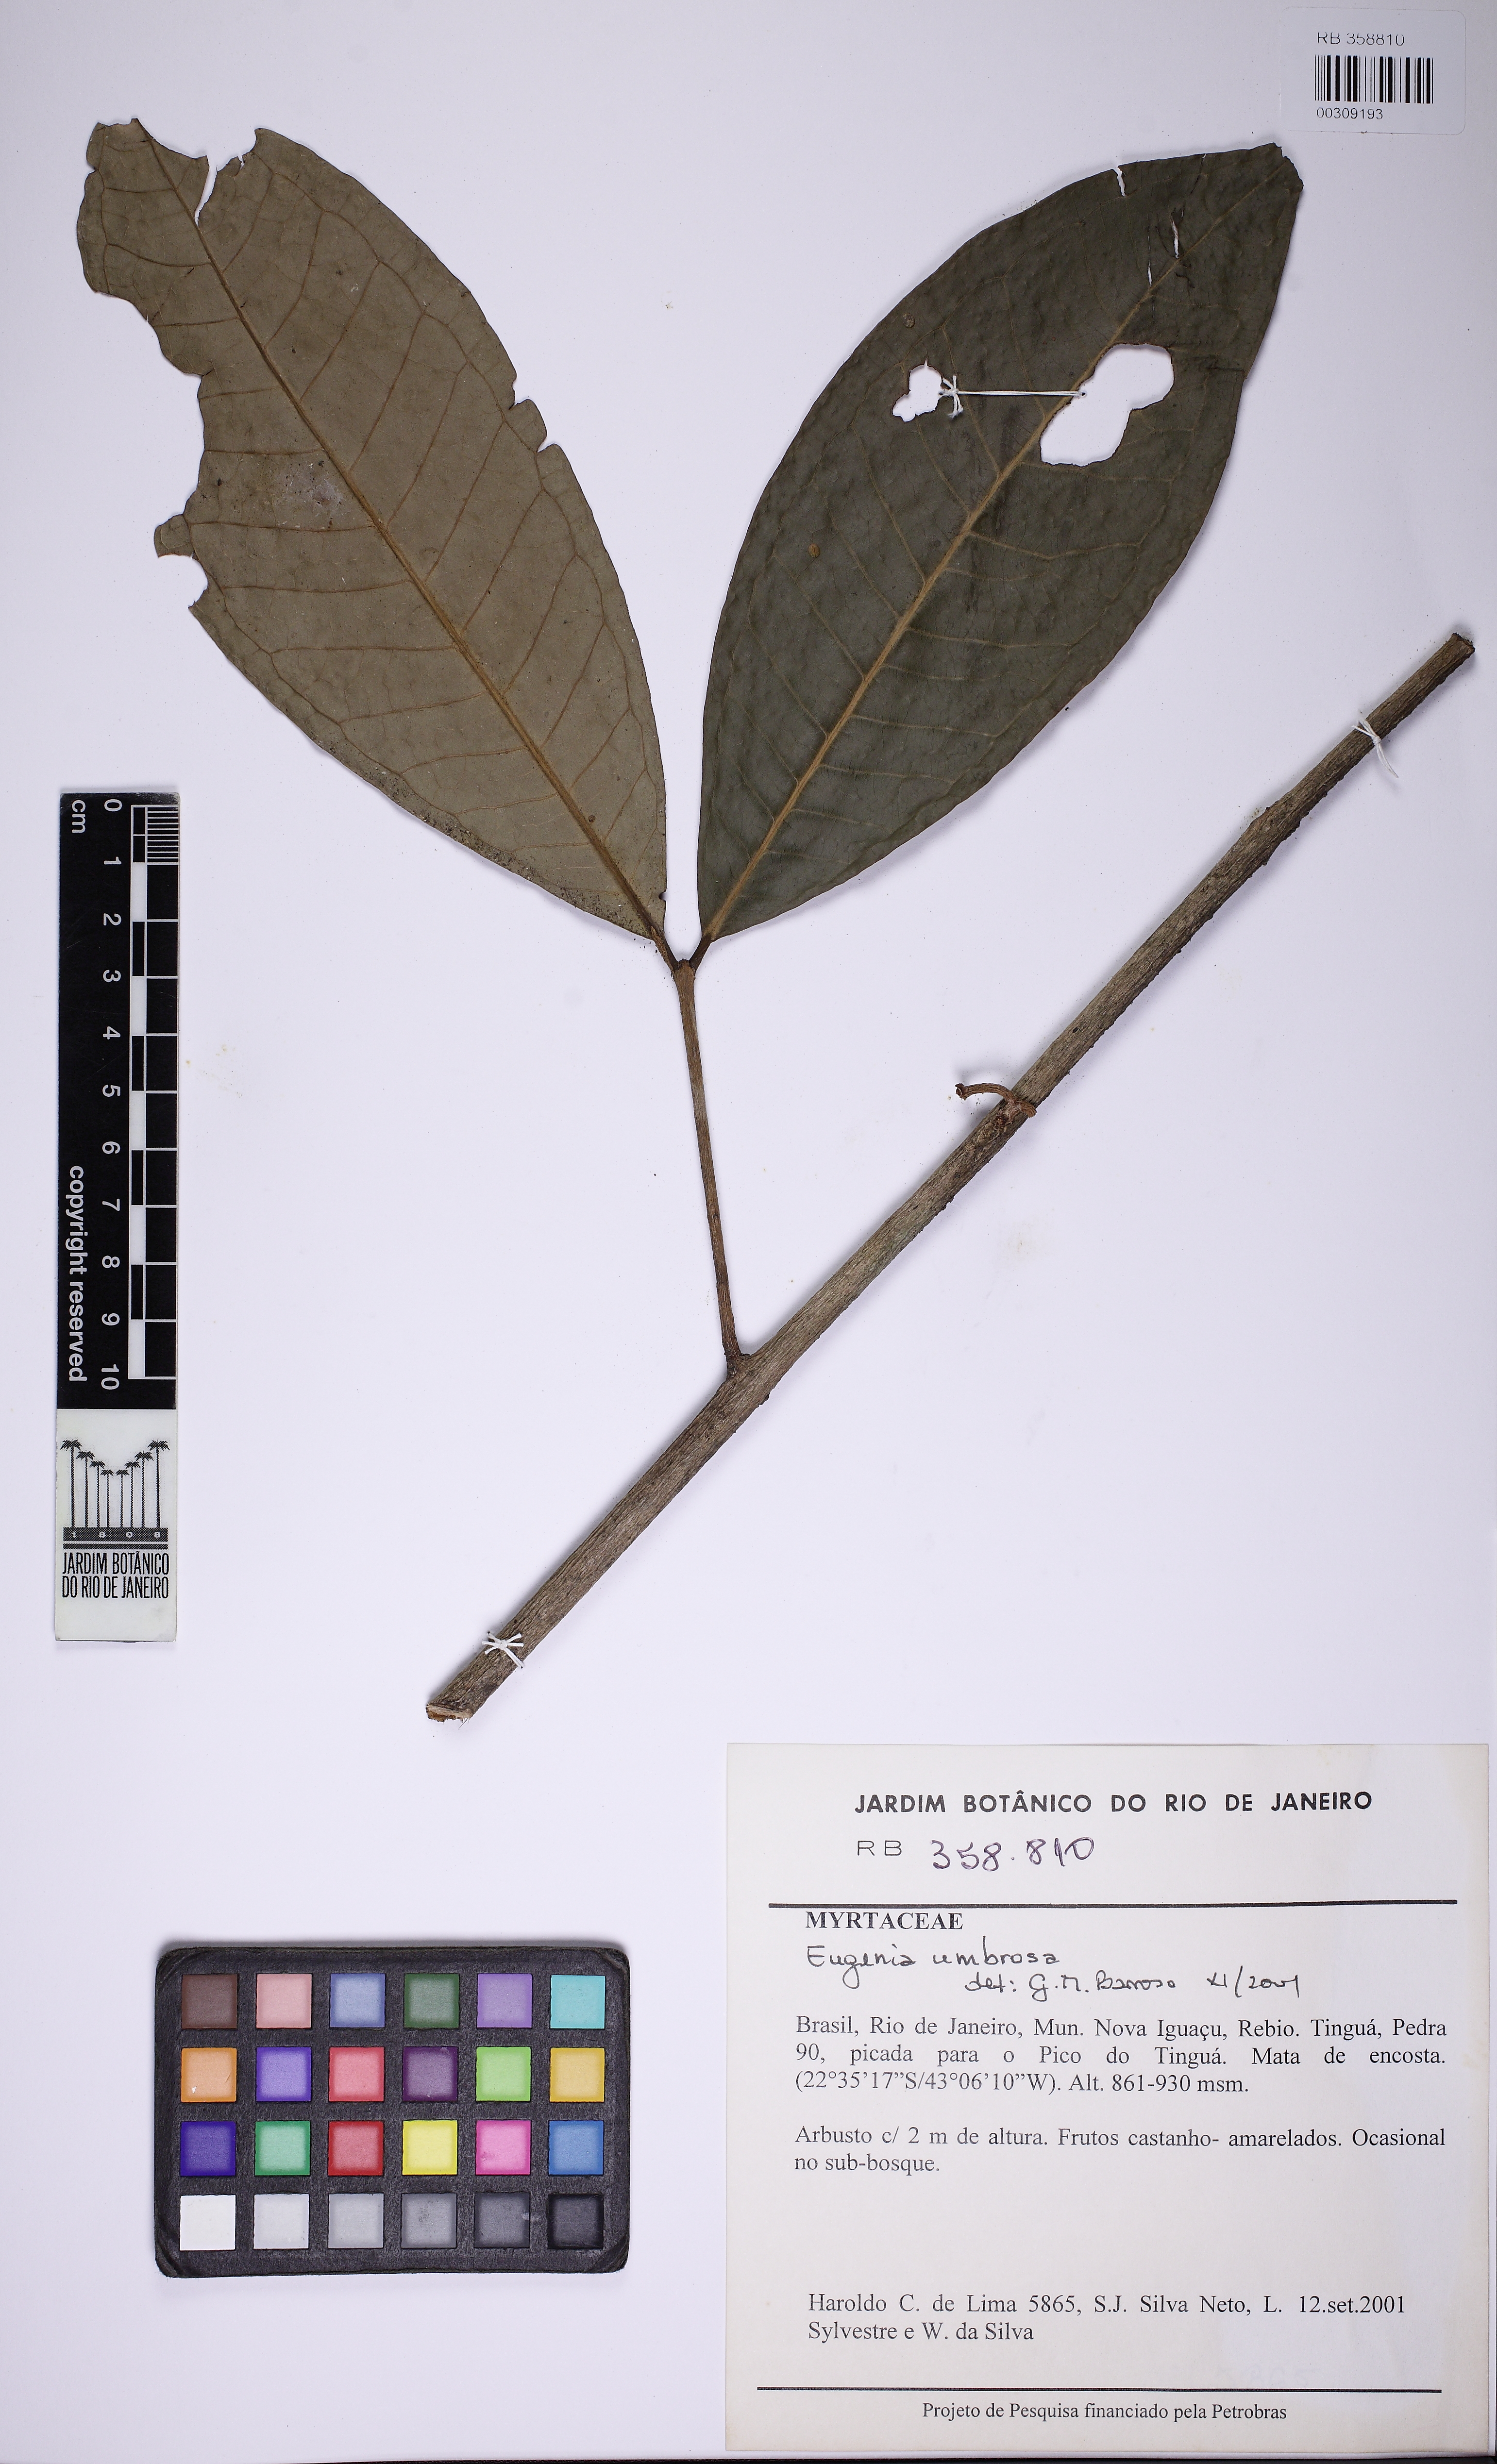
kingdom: Plantae
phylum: Tracheophyta
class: Magnoliopsida
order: Myrtales
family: Myrtaceae
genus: Eugenia
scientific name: Eugenia umbrosa
